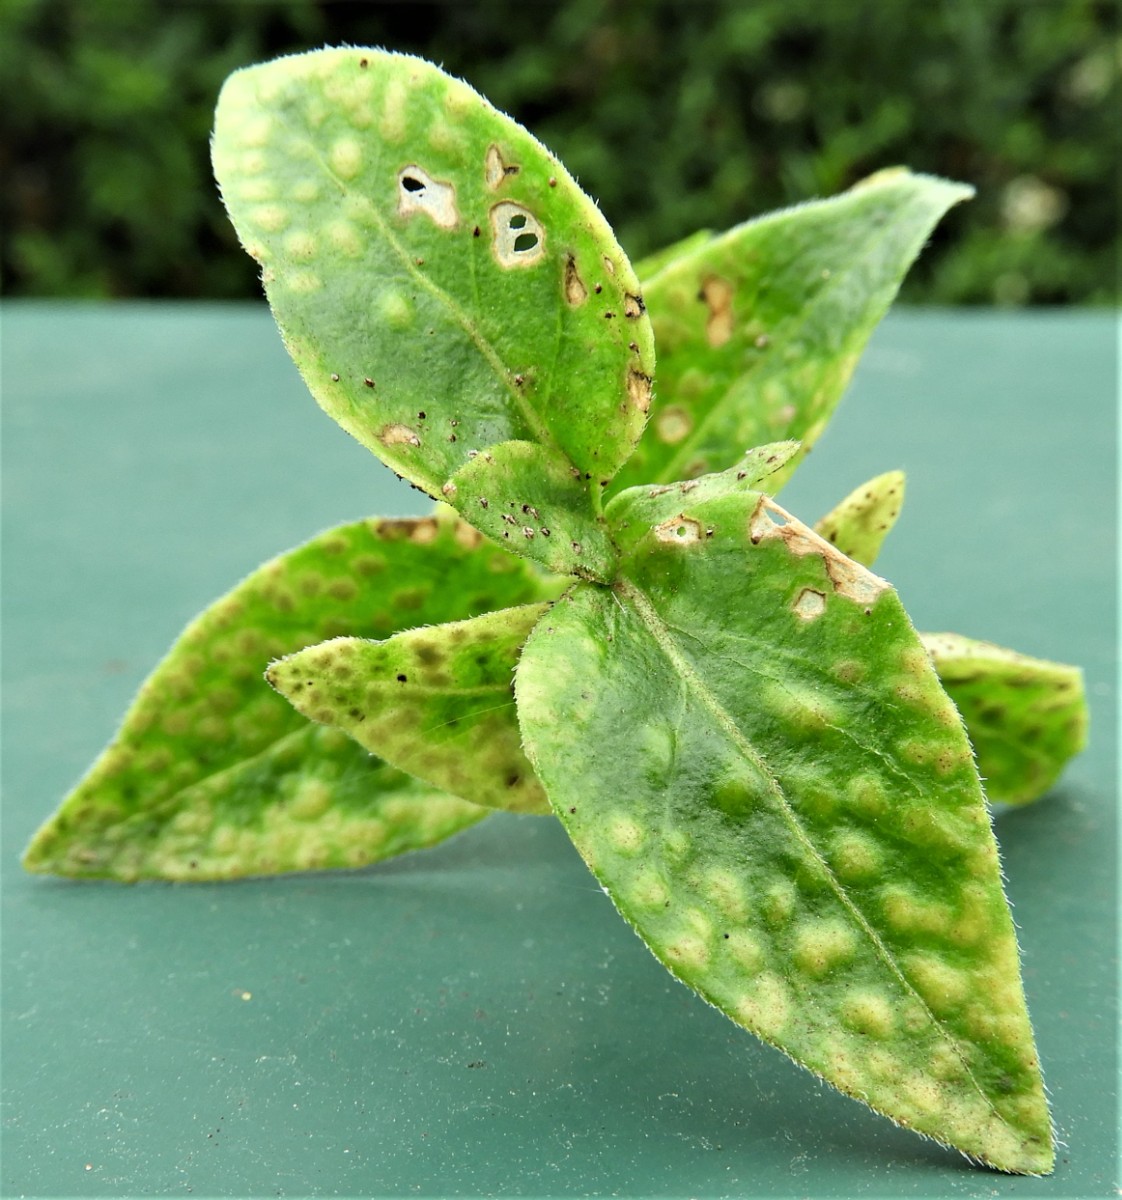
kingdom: Fungi
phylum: Basidiomycota
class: Pucciniomycetes
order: Pucciniales
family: Pucciniaceae
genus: Puccinia
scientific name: Puccinia vincae
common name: Periwinkle rust
